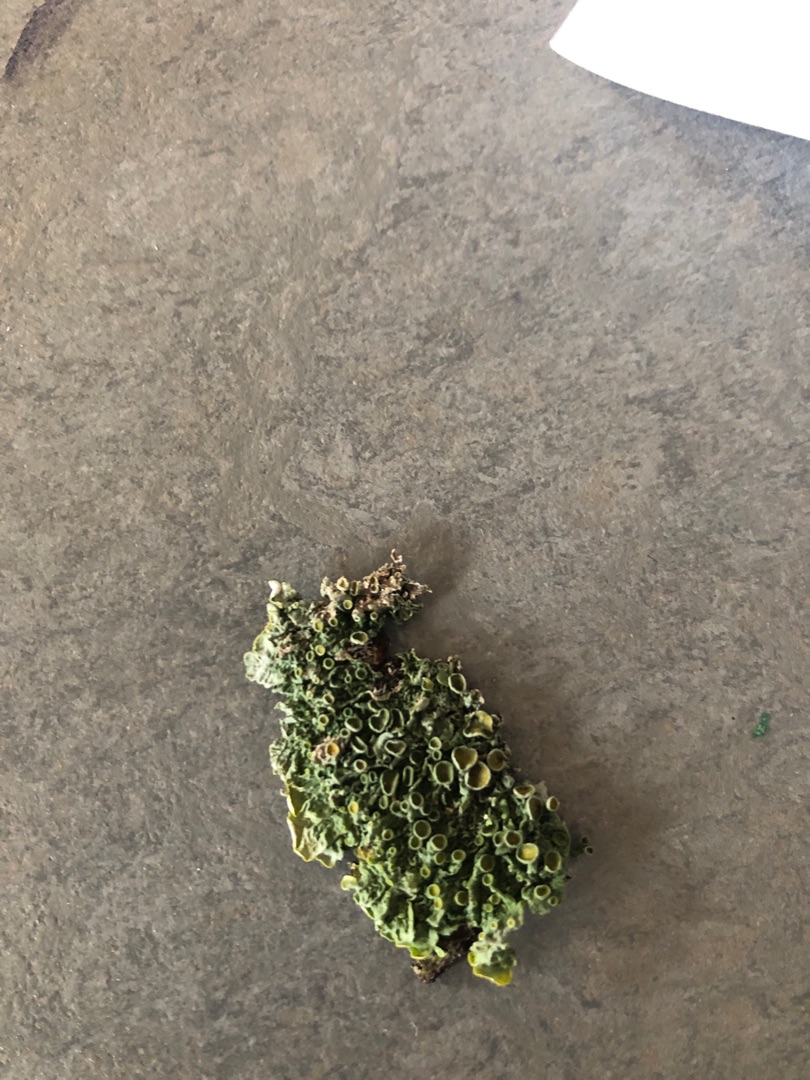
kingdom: Fungi
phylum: Ascomycota
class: Lecanoromycetes
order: Teloschistales
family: Teloschistaceae
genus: Xanthoria
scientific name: Xanthoria parietina
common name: Almindelig væggelav
